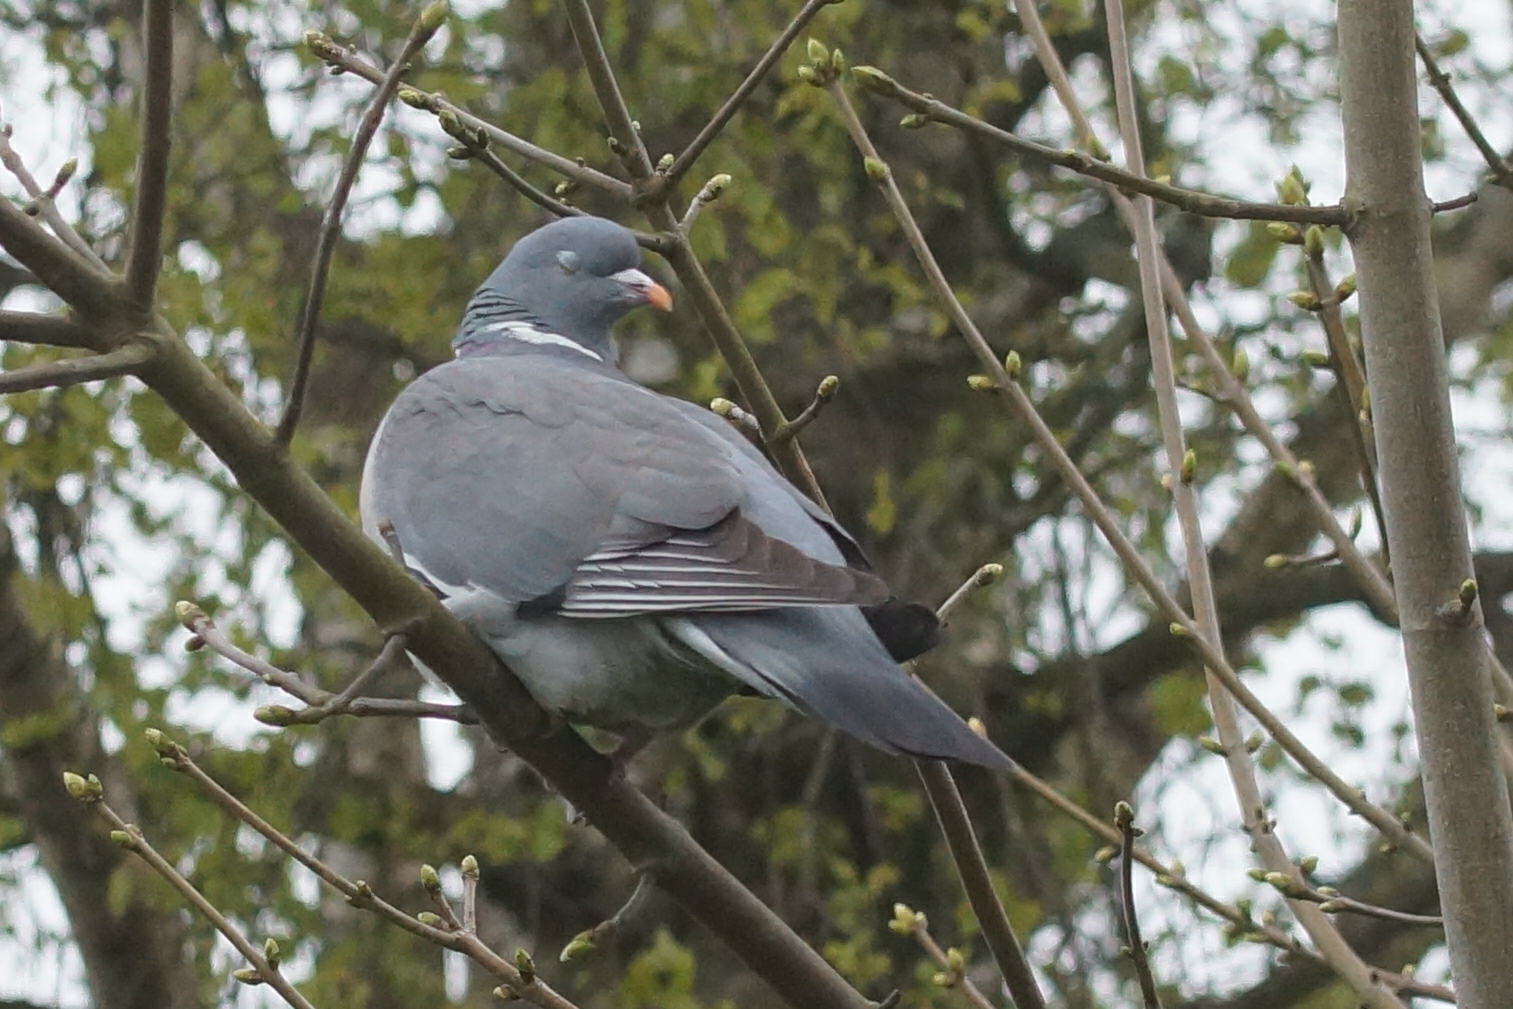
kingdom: Animalia
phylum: Chordata
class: Aves
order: Columbiformes
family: Columbidae
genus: Columba
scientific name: Columba palumbus
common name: Ringdue
